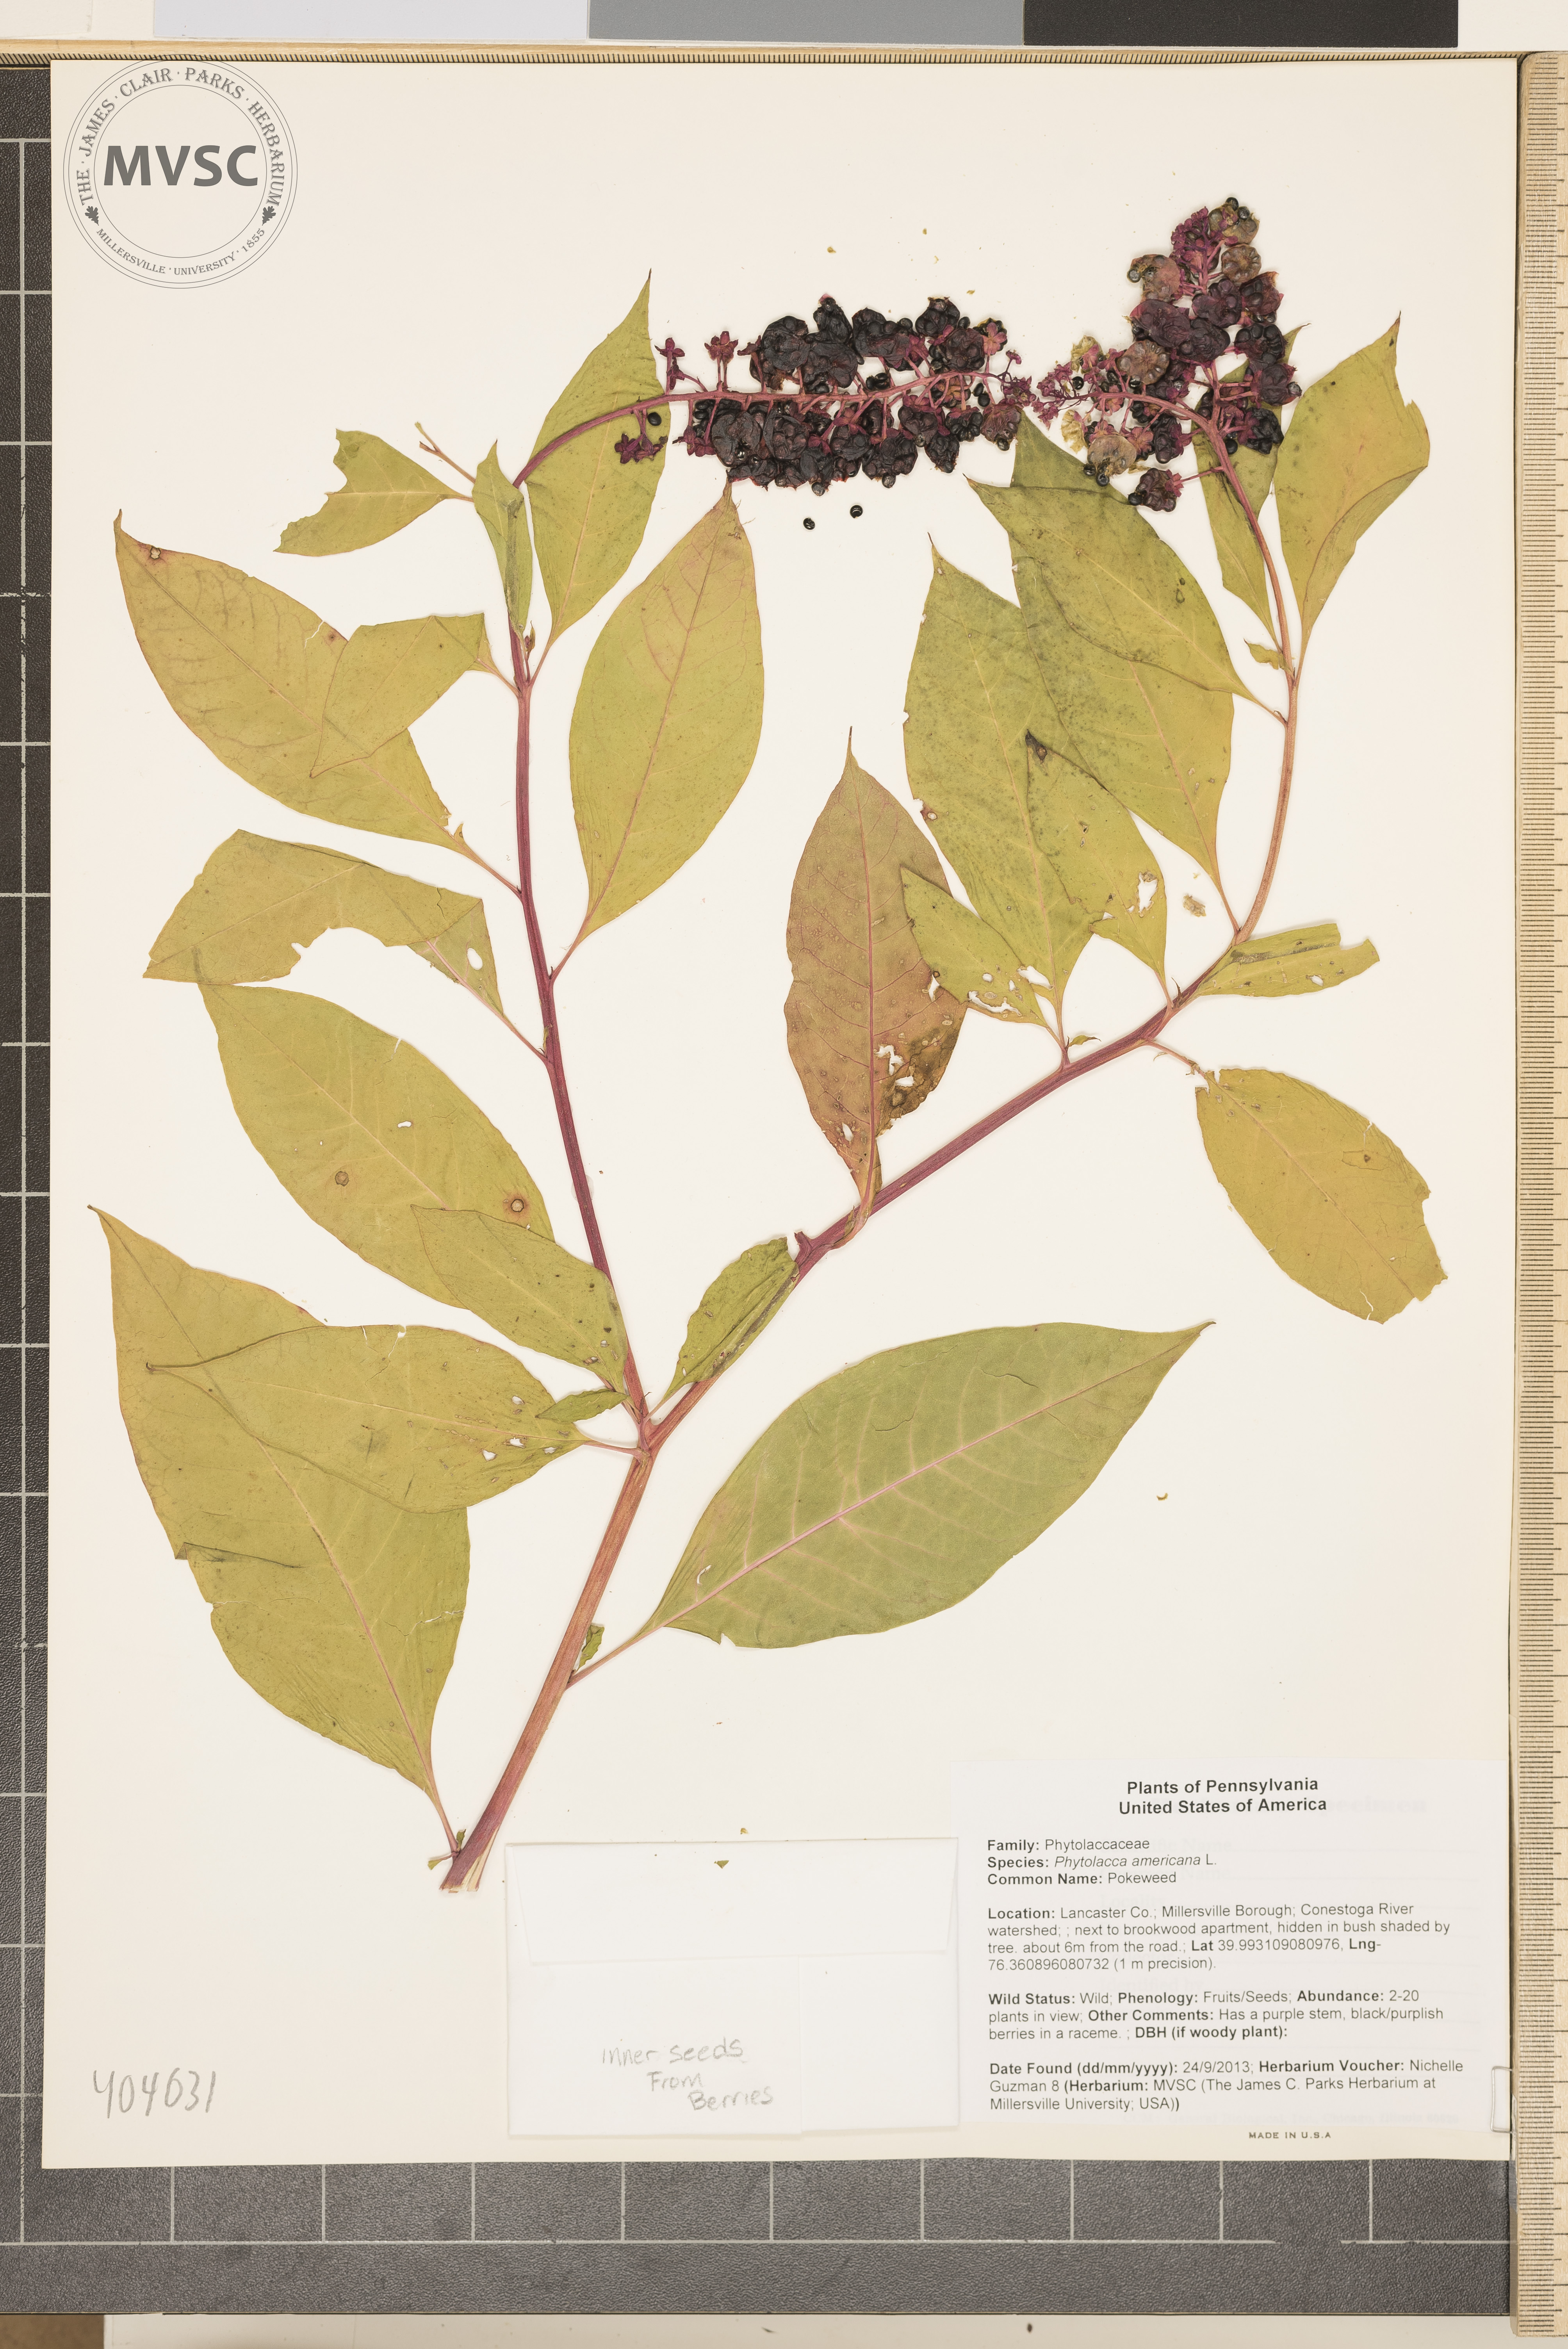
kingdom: Plantae
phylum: Tracheophyta
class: Magnoliopsida
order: Caryophyllales
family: Phytolaccaceae
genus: Phytolacca
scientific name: Phytolacca americana
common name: Pokeweed
